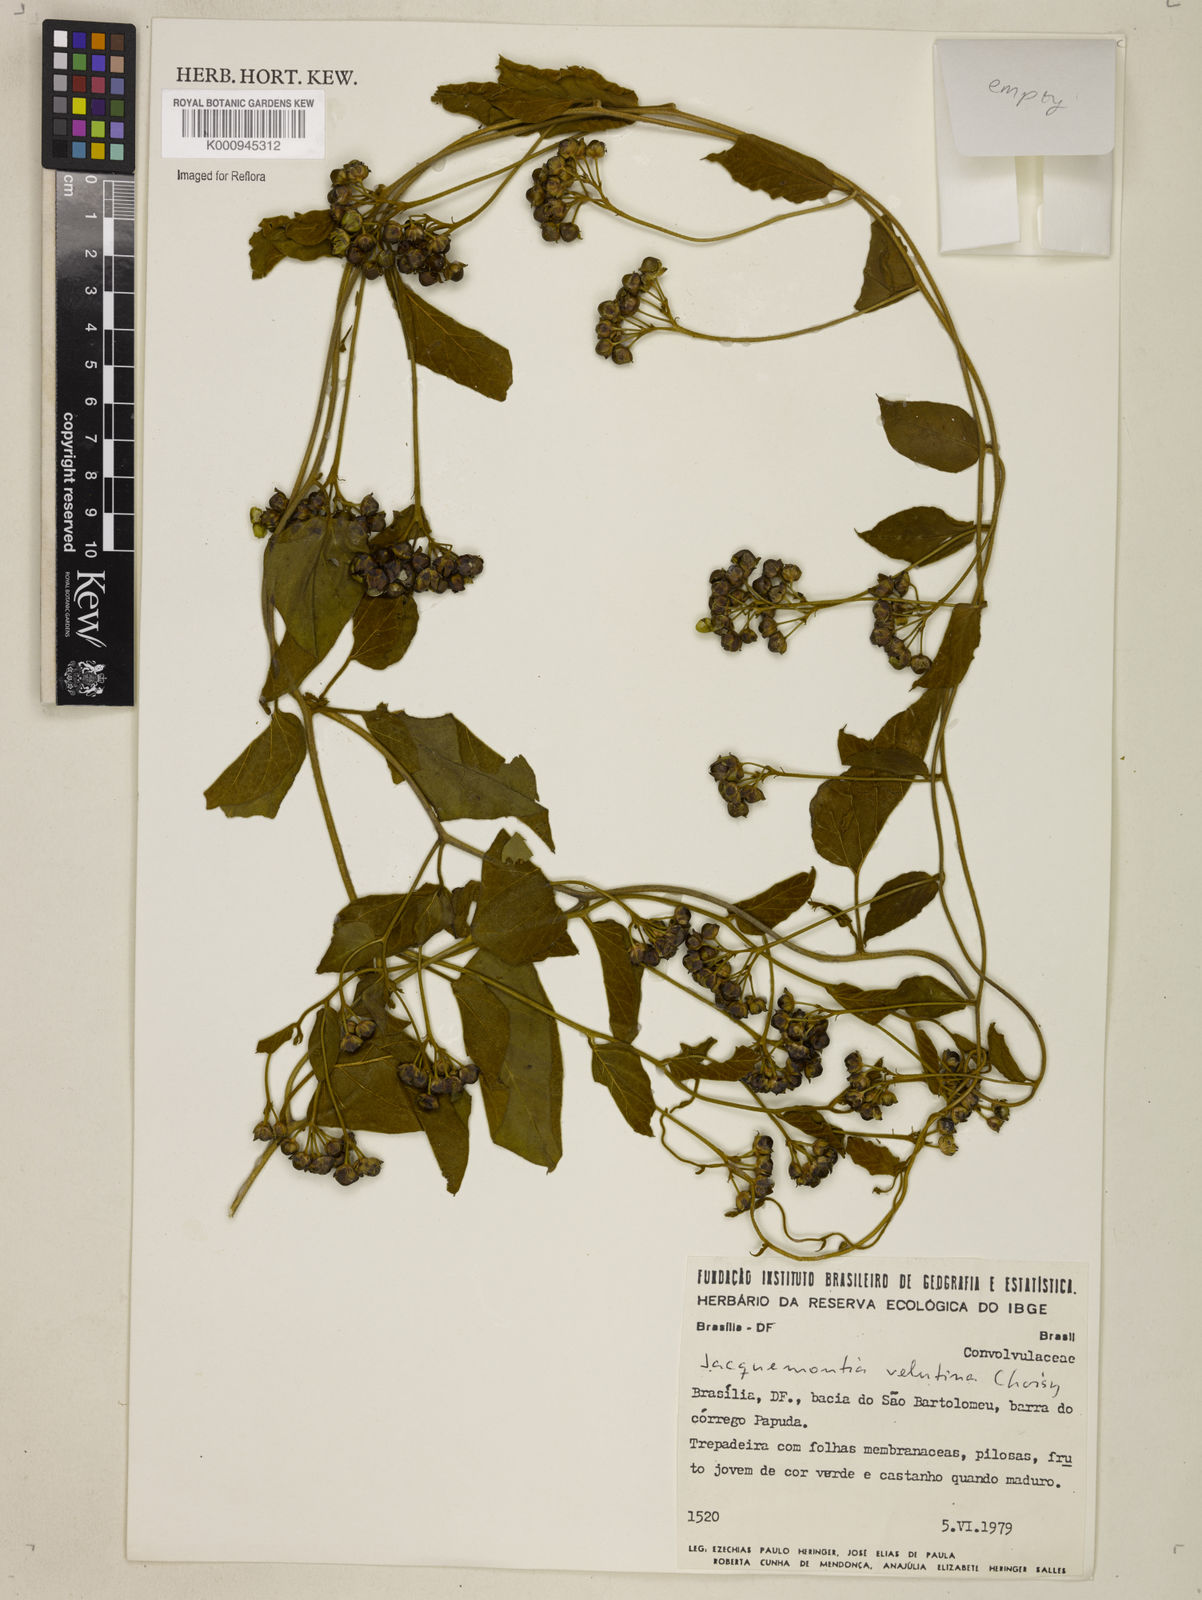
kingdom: Plantae
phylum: Tracheophyta
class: Magnoliopsida
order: Solanales
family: Convolvulaceae
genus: Jacquemontia
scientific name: Jacquemontia velutina
